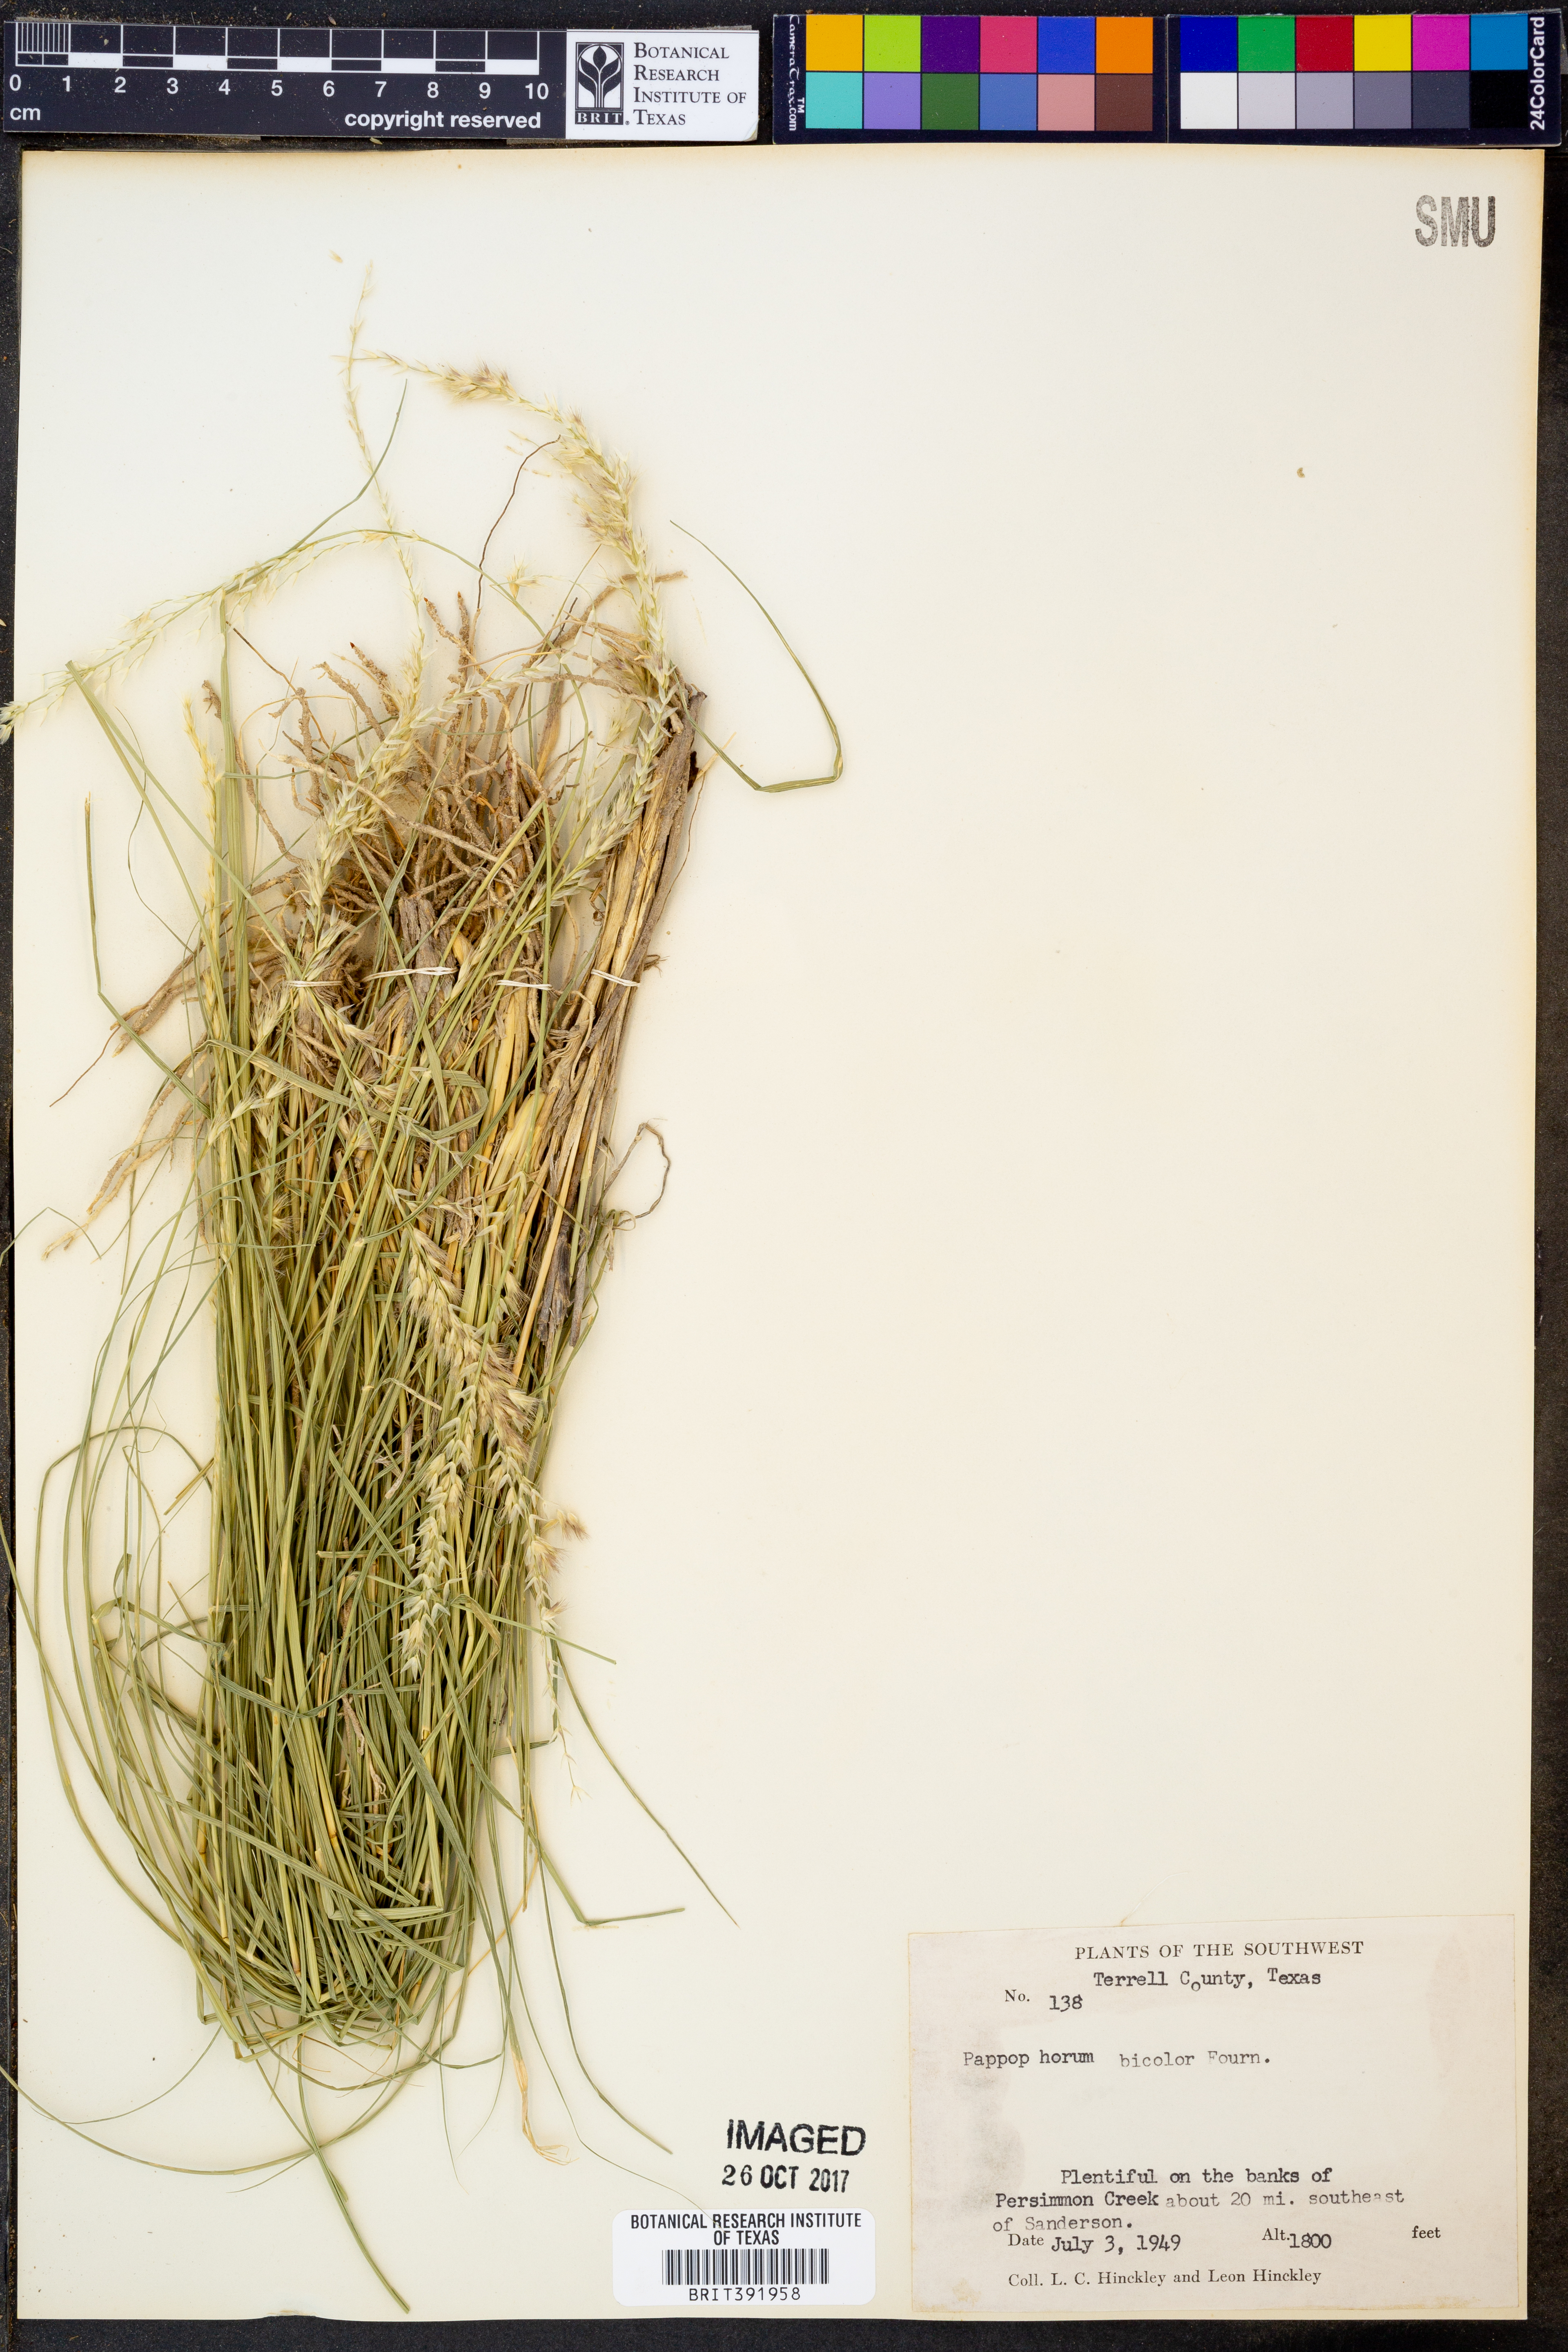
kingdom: Plantae
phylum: Tracheophyta
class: Liliopsida
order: Poales
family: Poaceae
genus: Pappophorum
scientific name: Pappophorum bicolor
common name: Pink pappus grass
